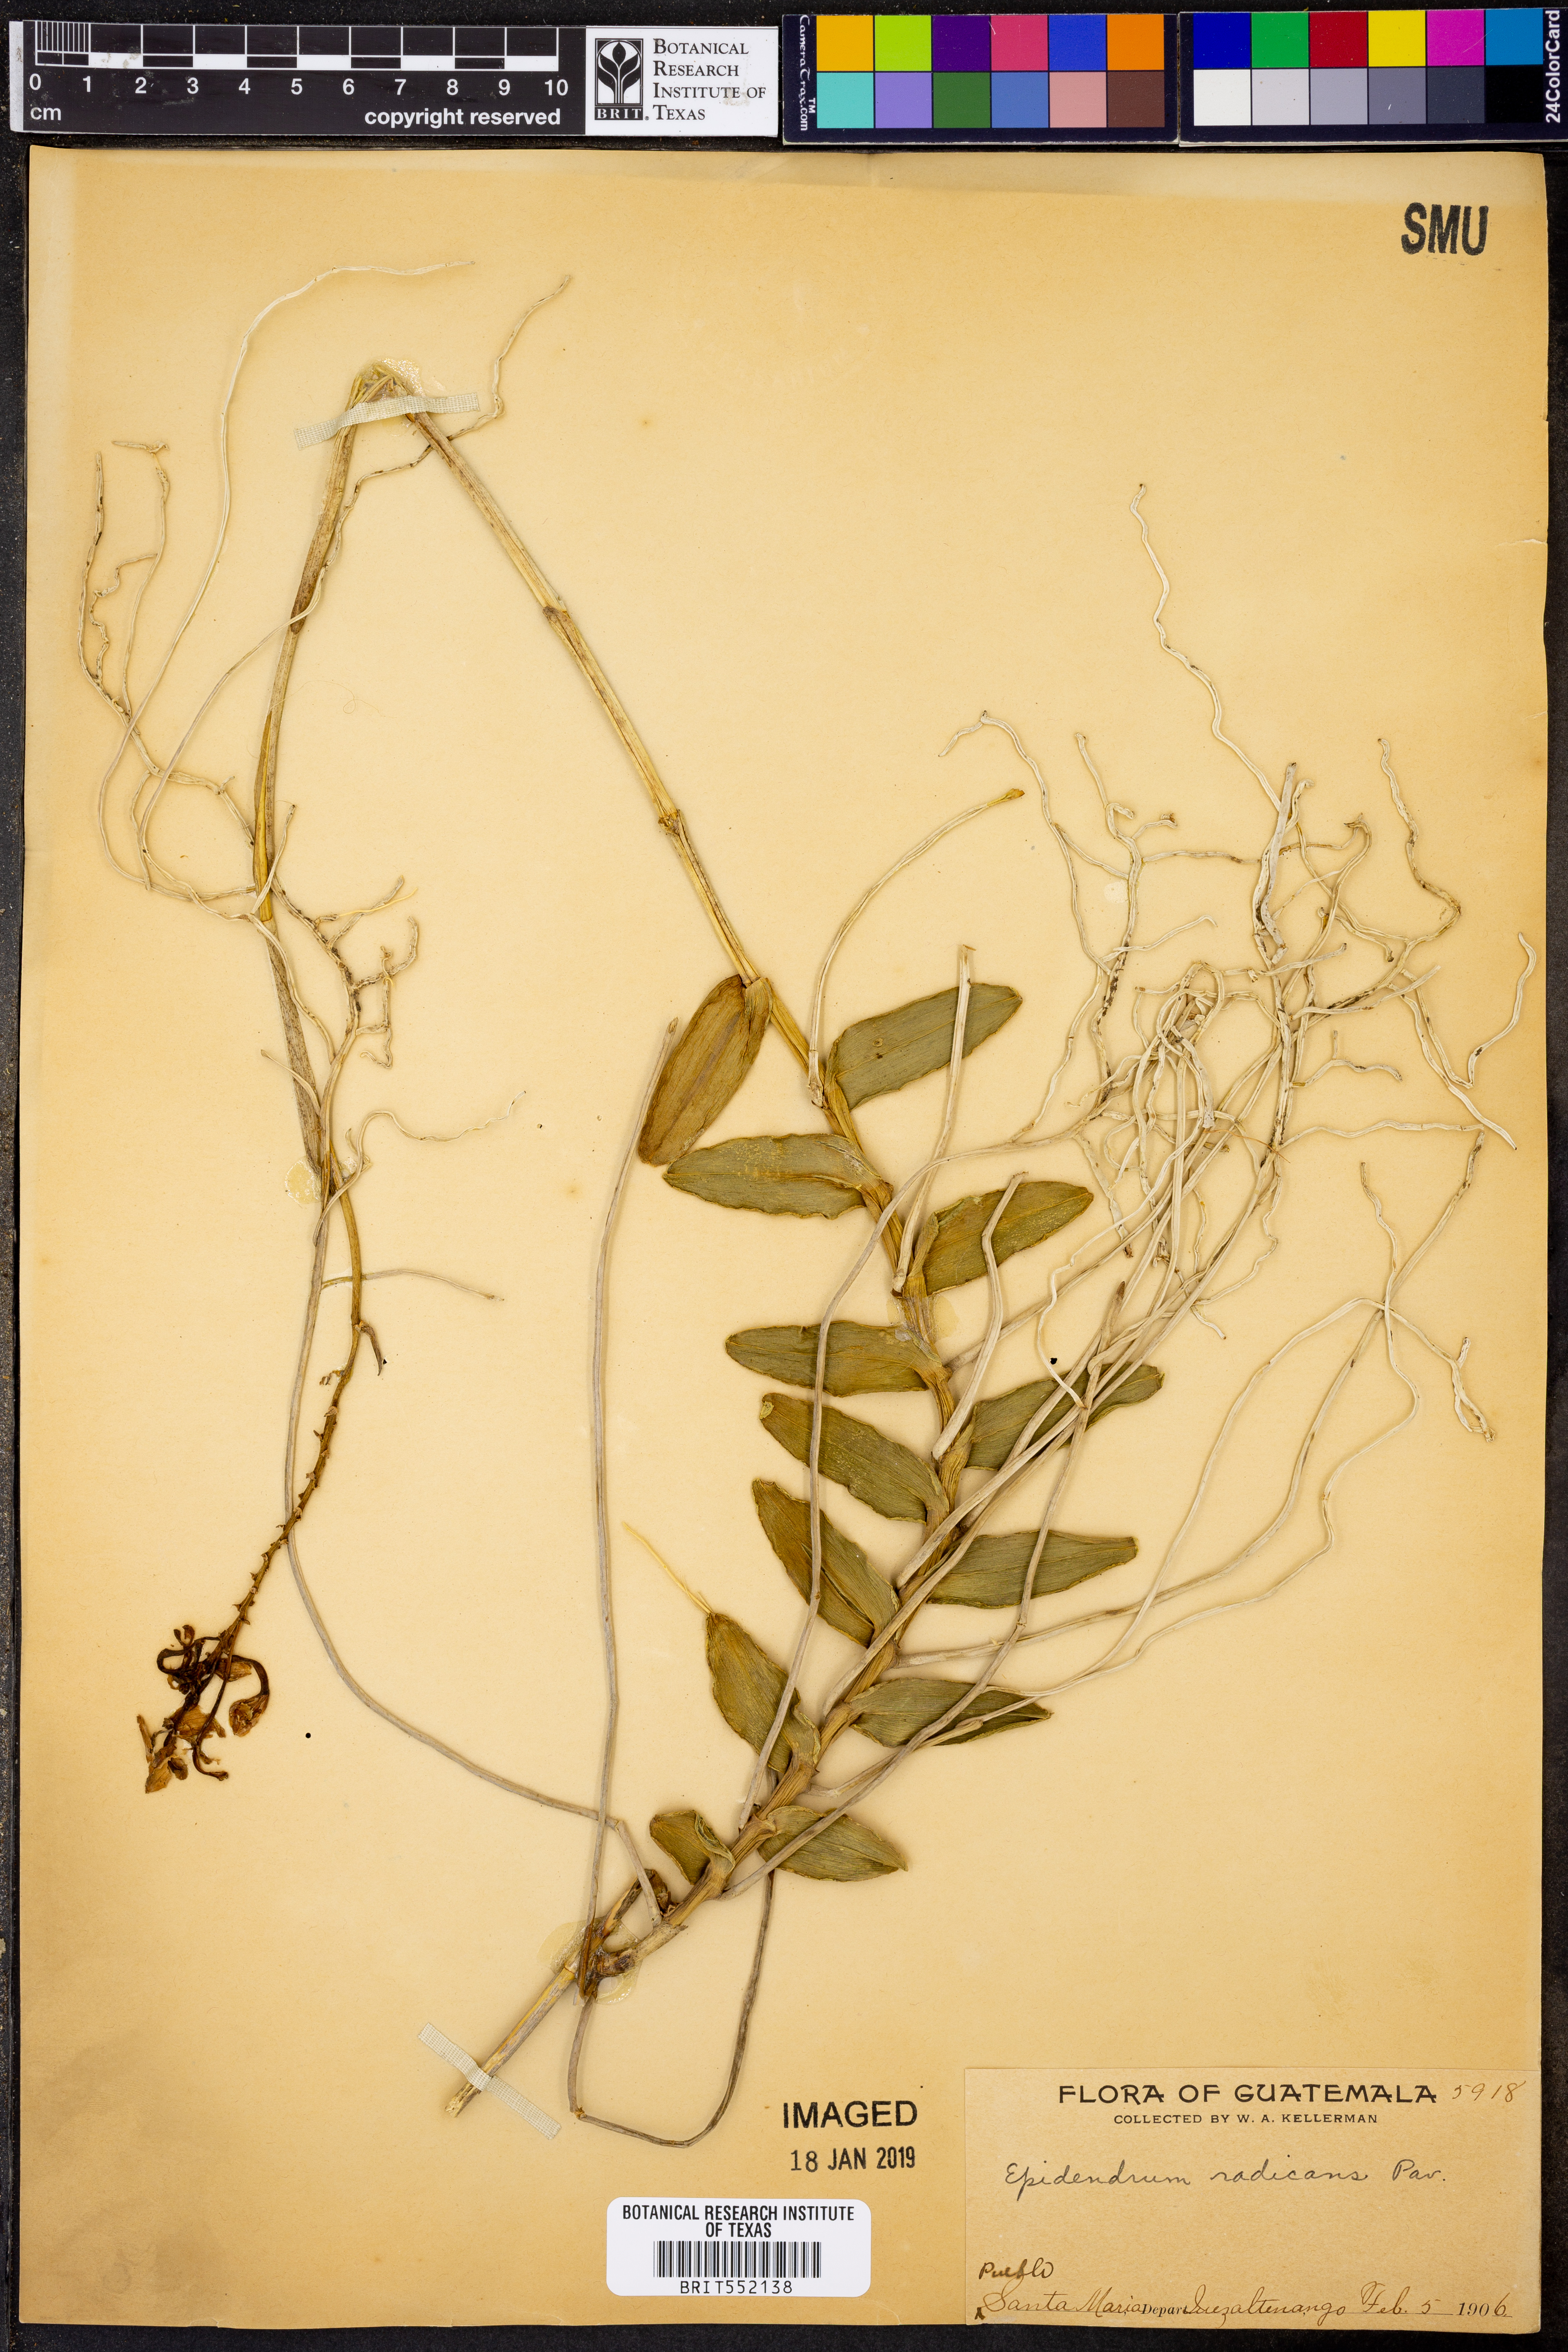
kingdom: Plantae
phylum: Tracheophyta
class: Liliopsida
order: Asparagales
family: Orchidaceae
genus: Epidendrum
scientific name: Epidendrum radicans
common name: Fire star orchid
